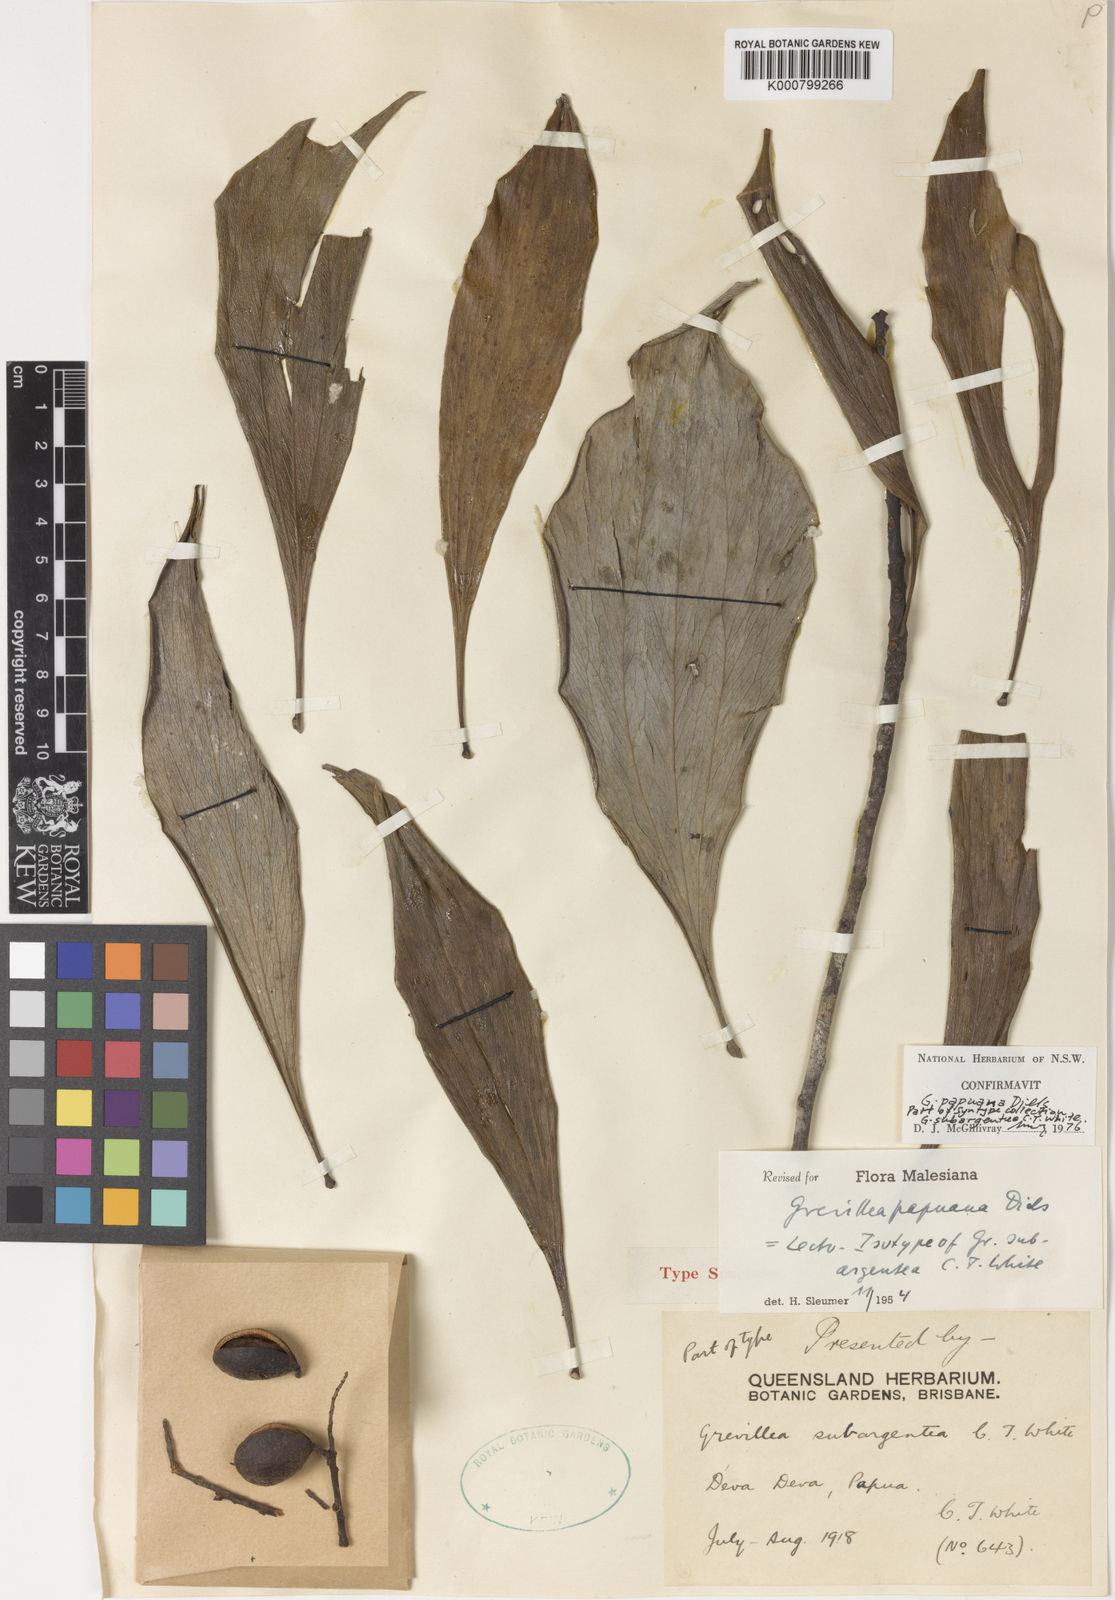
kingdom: Plantae
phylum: Tracheophyta
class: Magnoliopsida
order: Proteales
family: Proteaceae
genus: Grevillea
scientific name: Grevillea papuana
